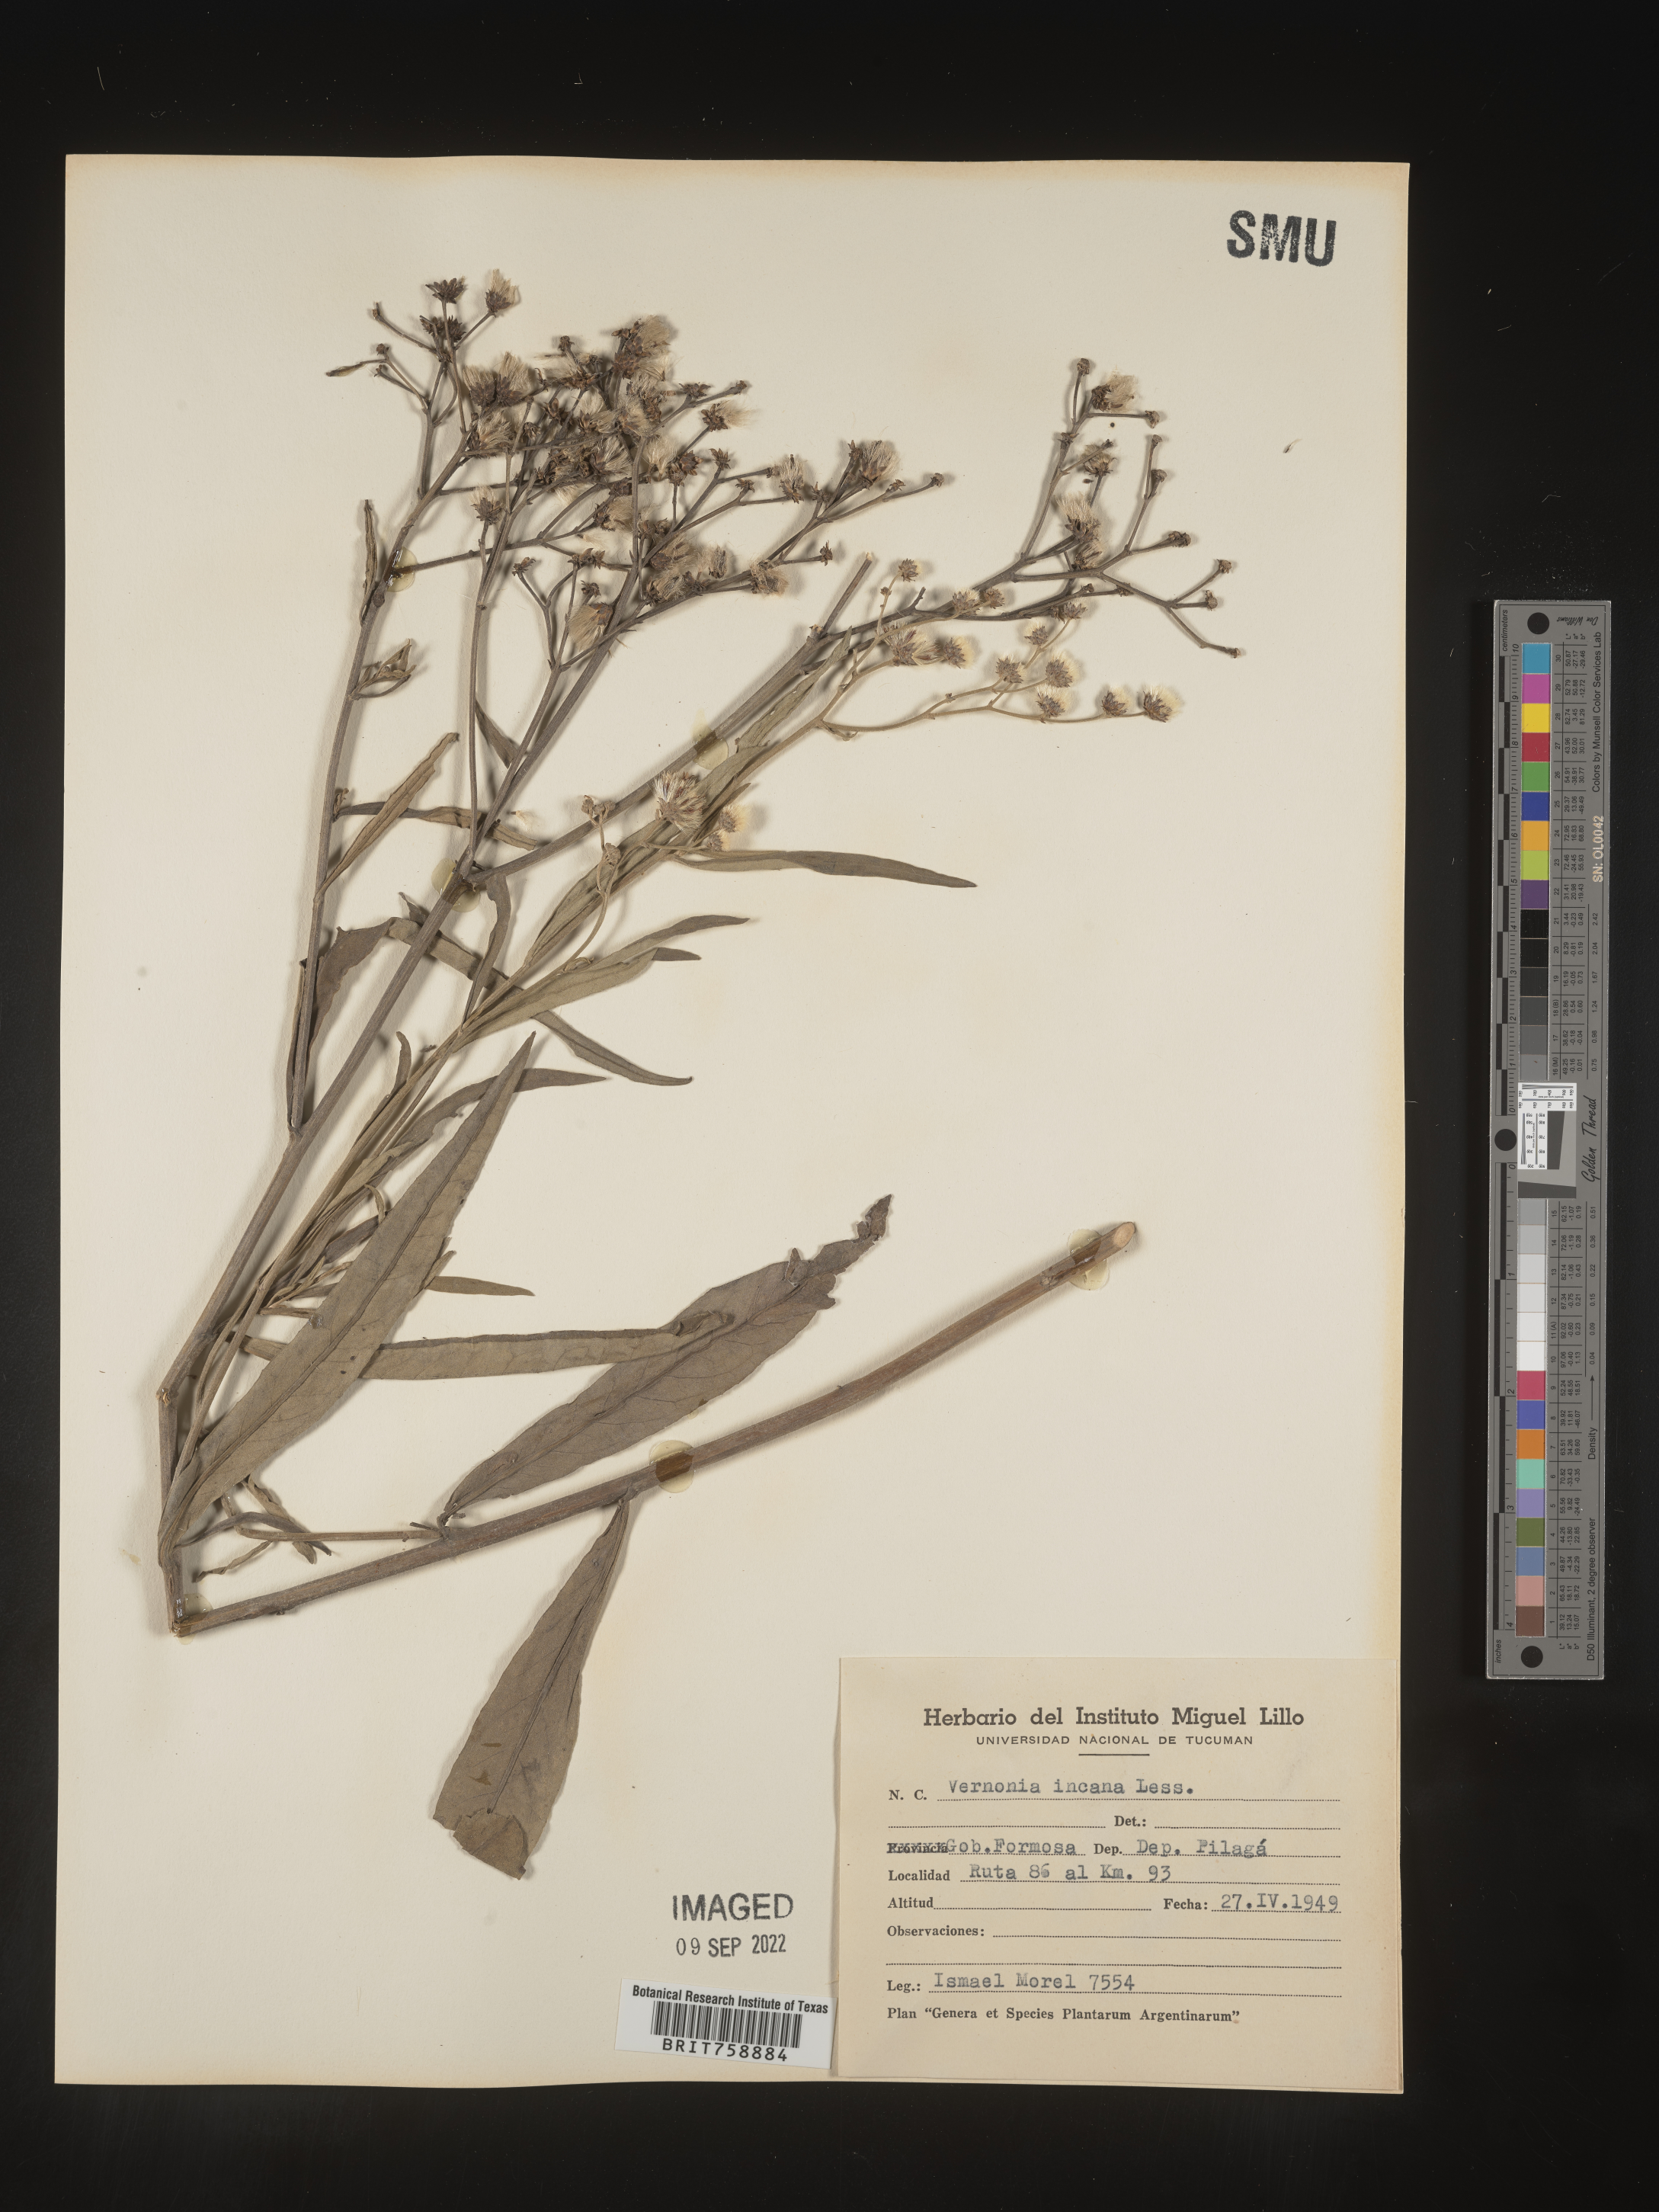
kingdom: Plantae
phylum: Tracheophyta
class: Magnoliopsida
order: Asterales
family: Asteraceae
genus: Vernonia
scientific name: Vernonia
